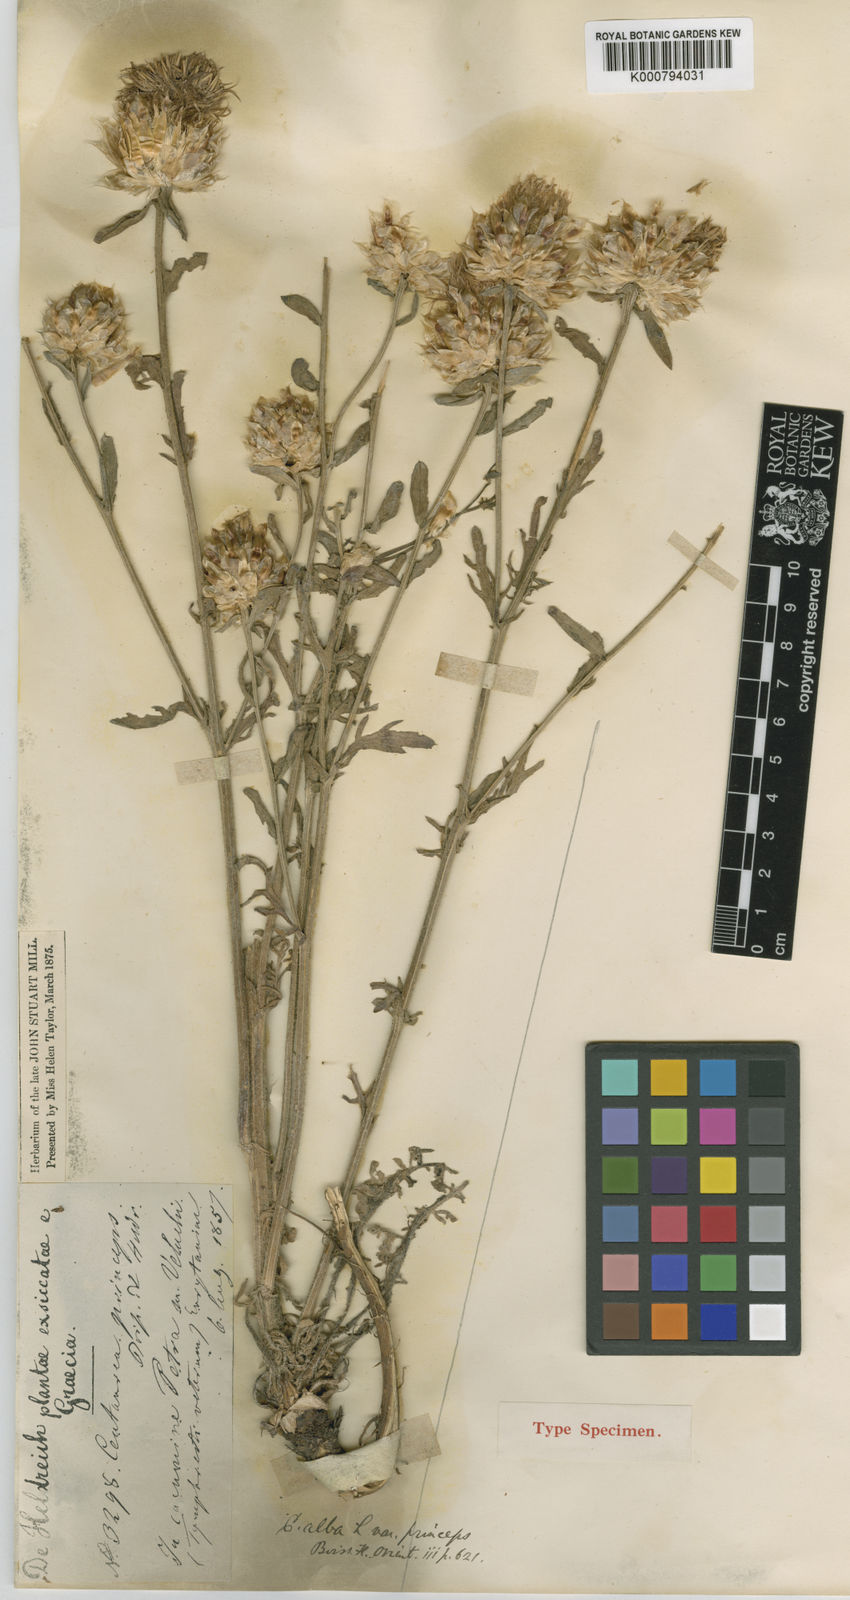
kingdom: Plantae
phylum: Tracheophyta
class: Magnoliopsida
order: Asterales
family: Asteraceae
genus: Centaurea
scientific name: Centaurea alba
